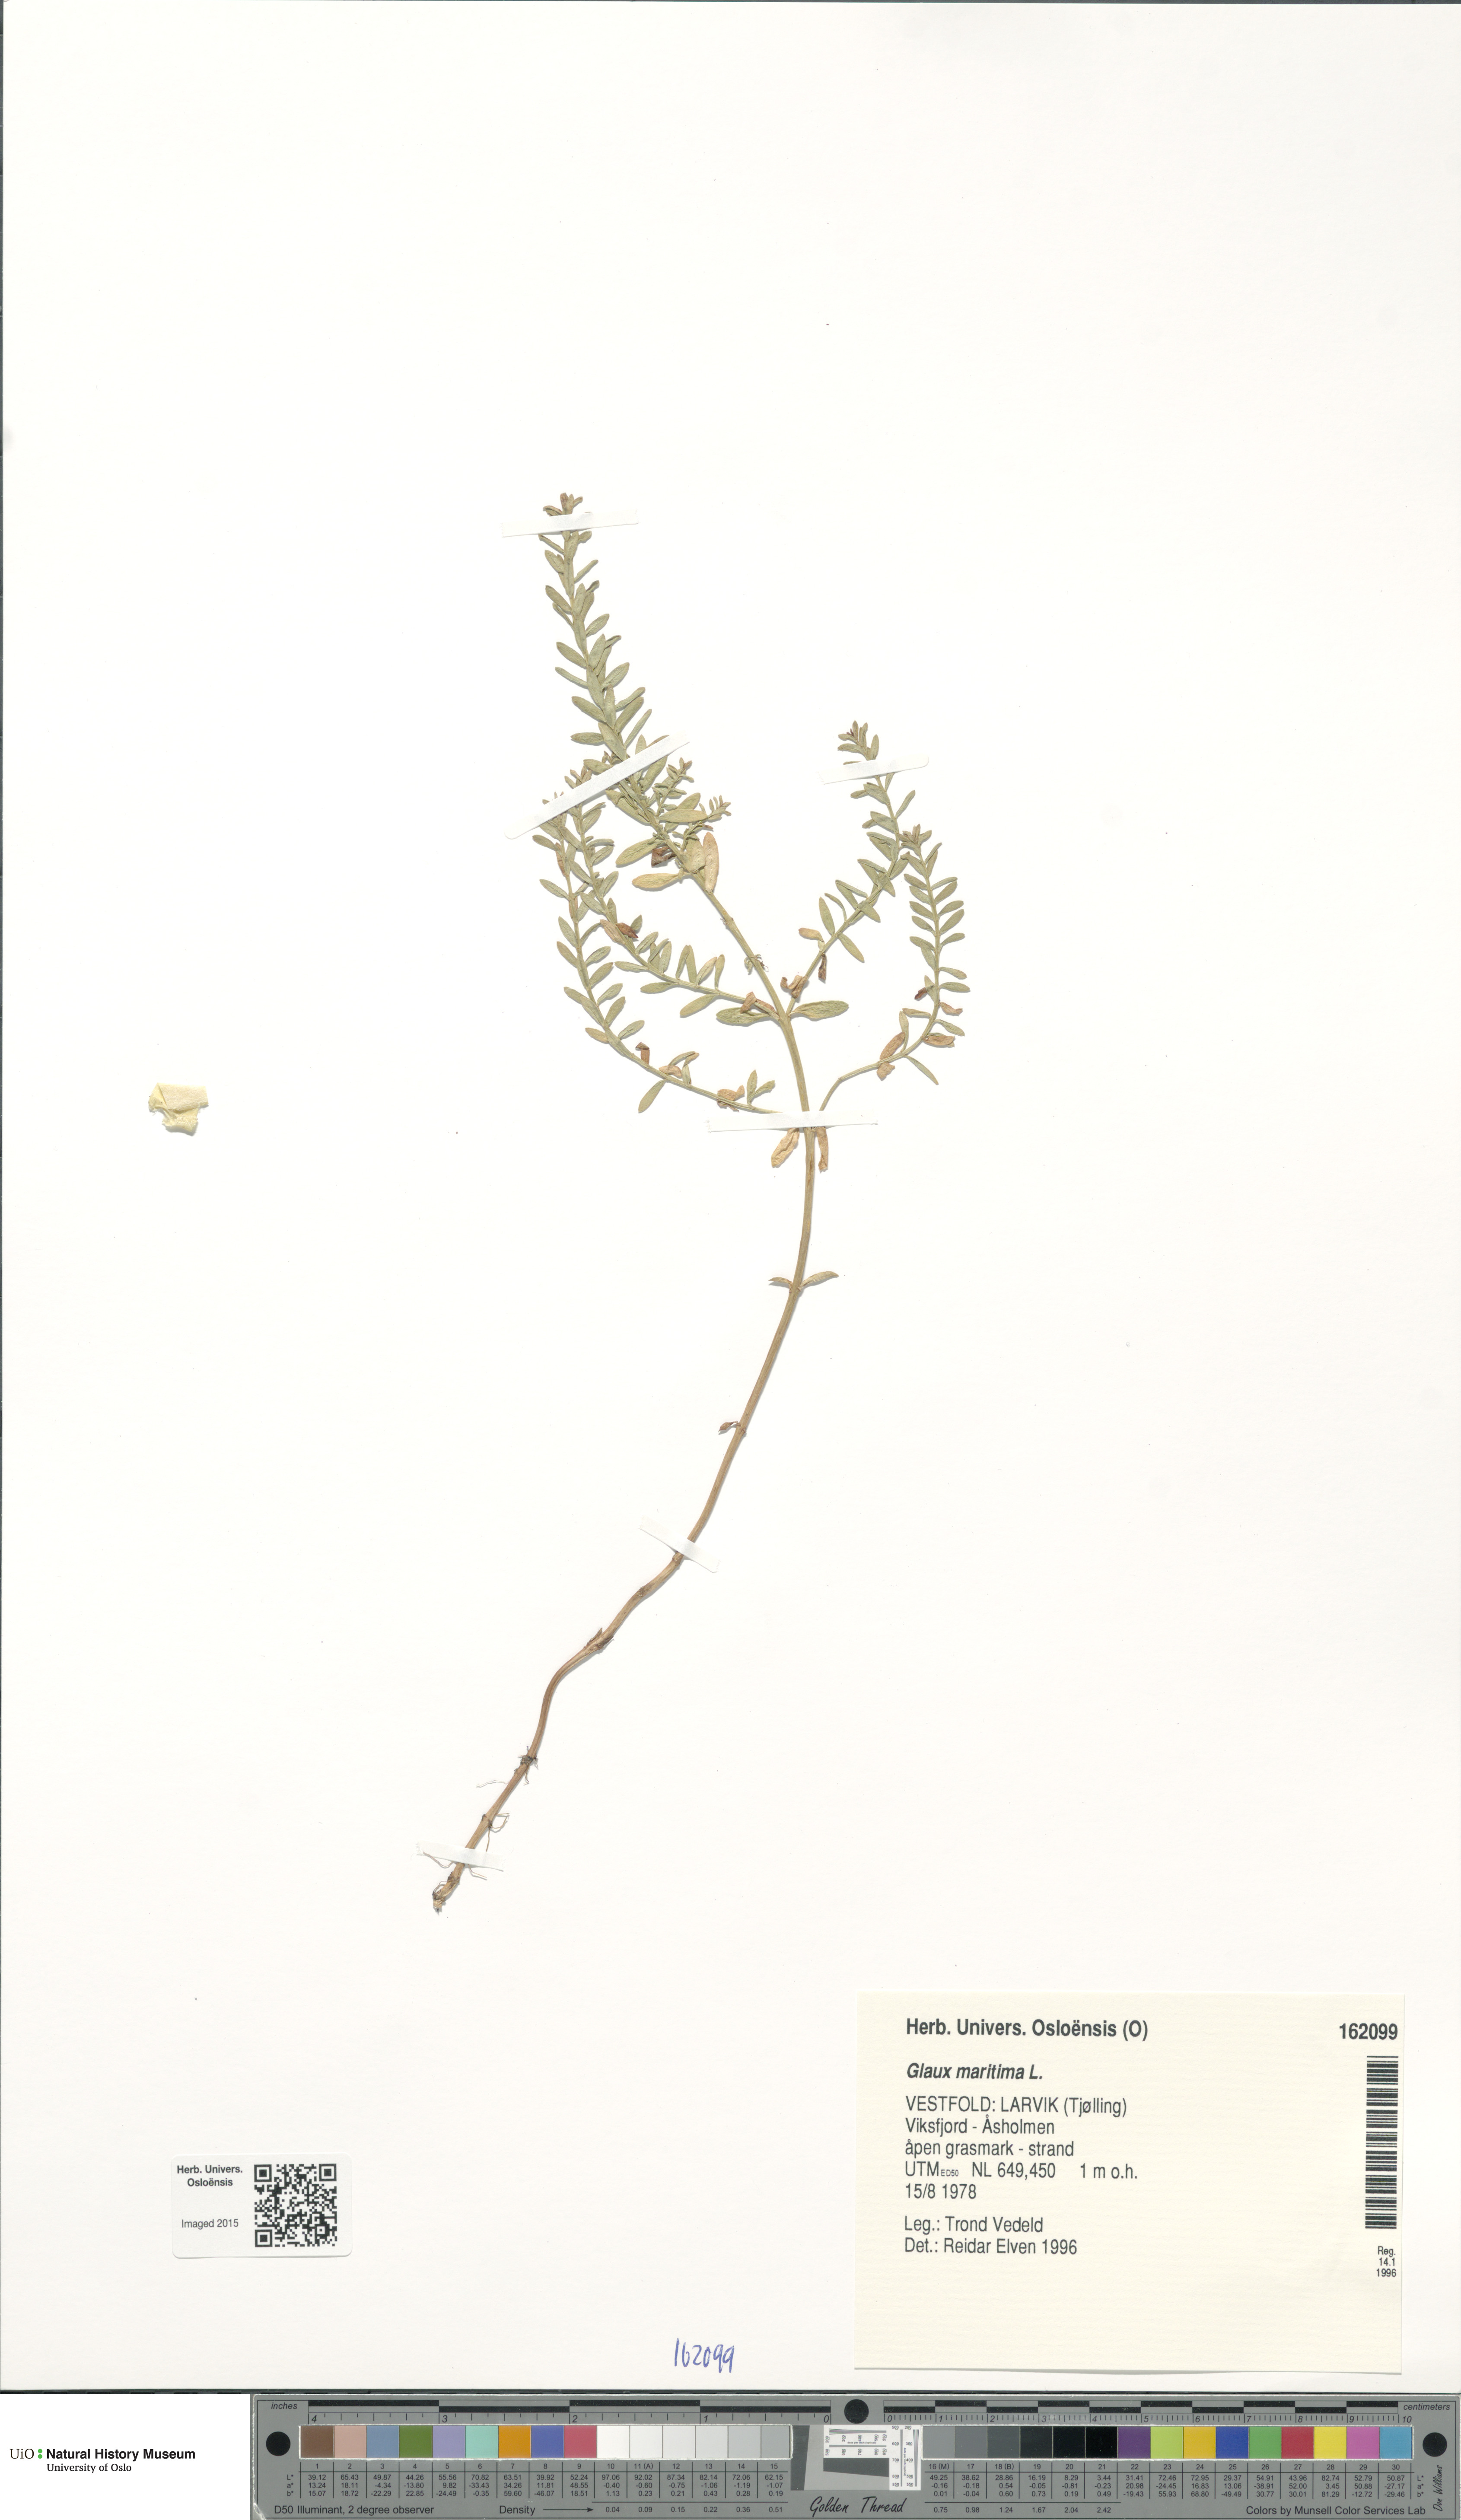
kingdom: Plantae
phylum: Tracheophyta
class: Magnoliopsida
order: Ericales
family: Primulaceae
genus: Lysimachia
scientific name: Lysimachia maritima
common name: Sea milkwort
